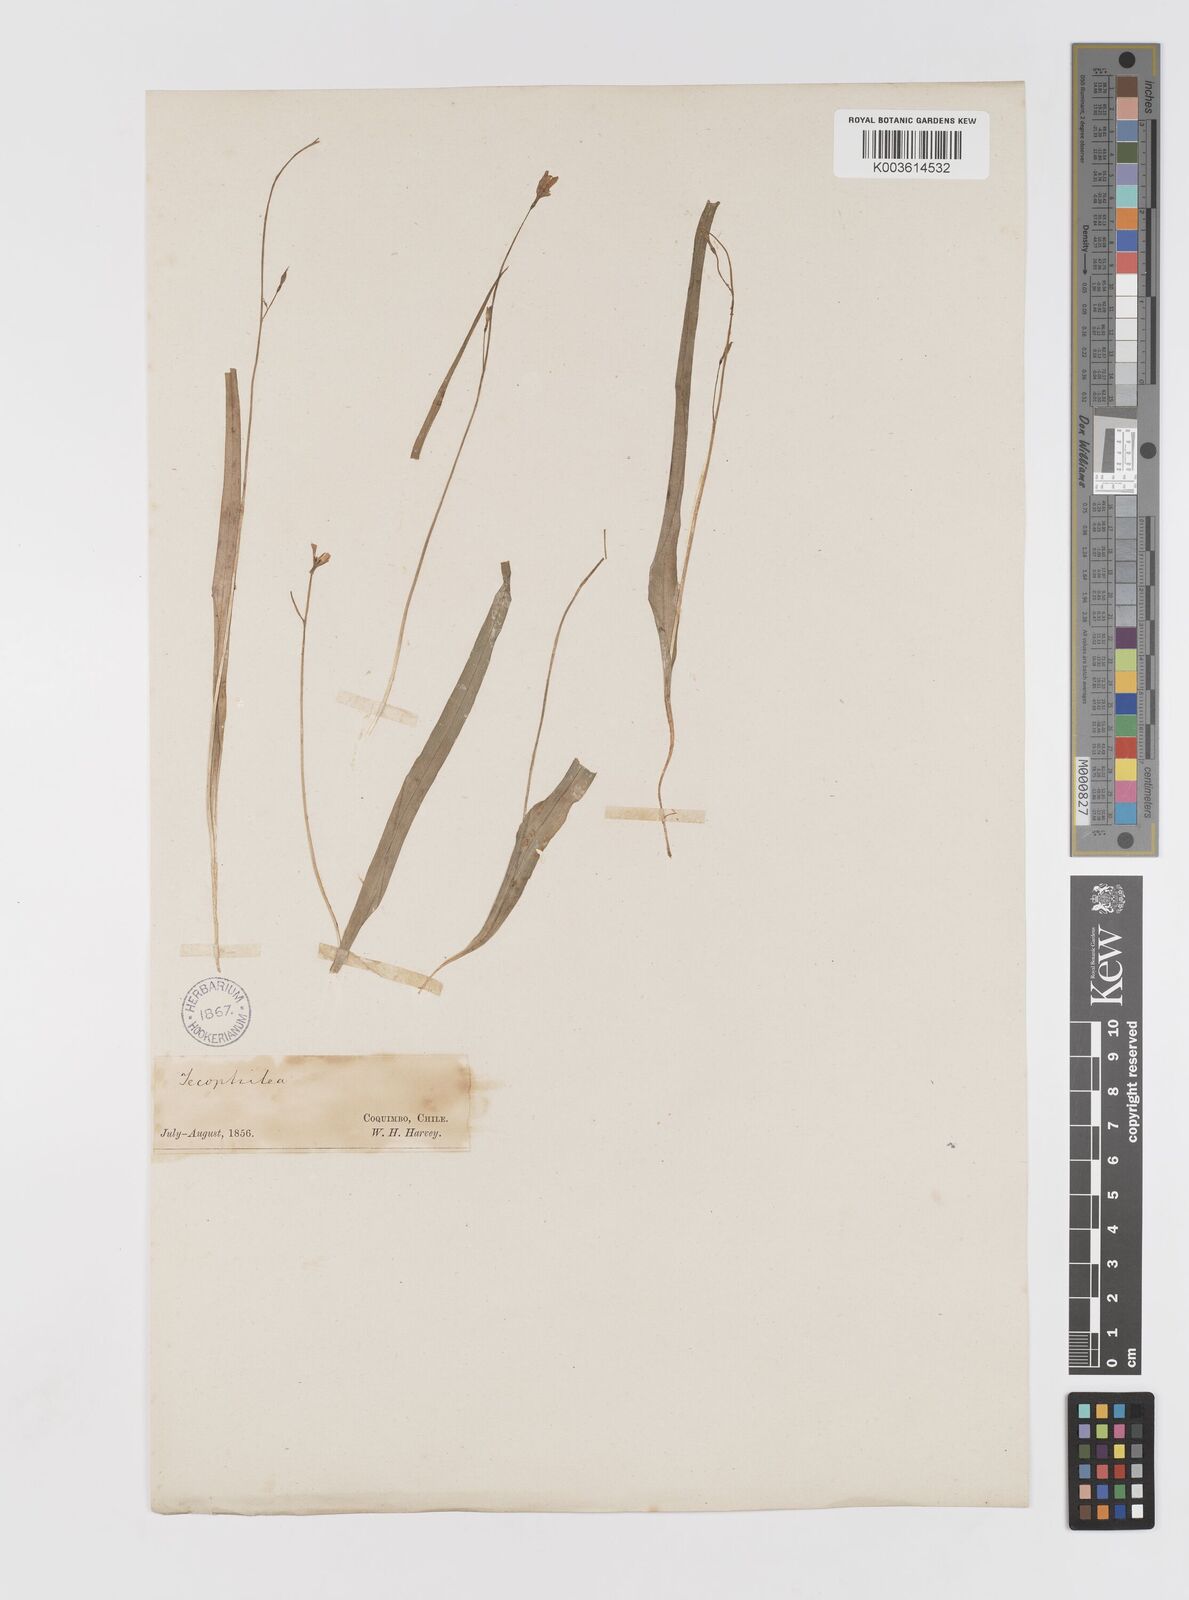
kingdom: Plantae
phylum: Tracheophyta
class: Liliopsida
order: Asparagales
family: Tecophilaeaceae
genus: Tecophilaea
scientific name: Tecophilaea violiflora
